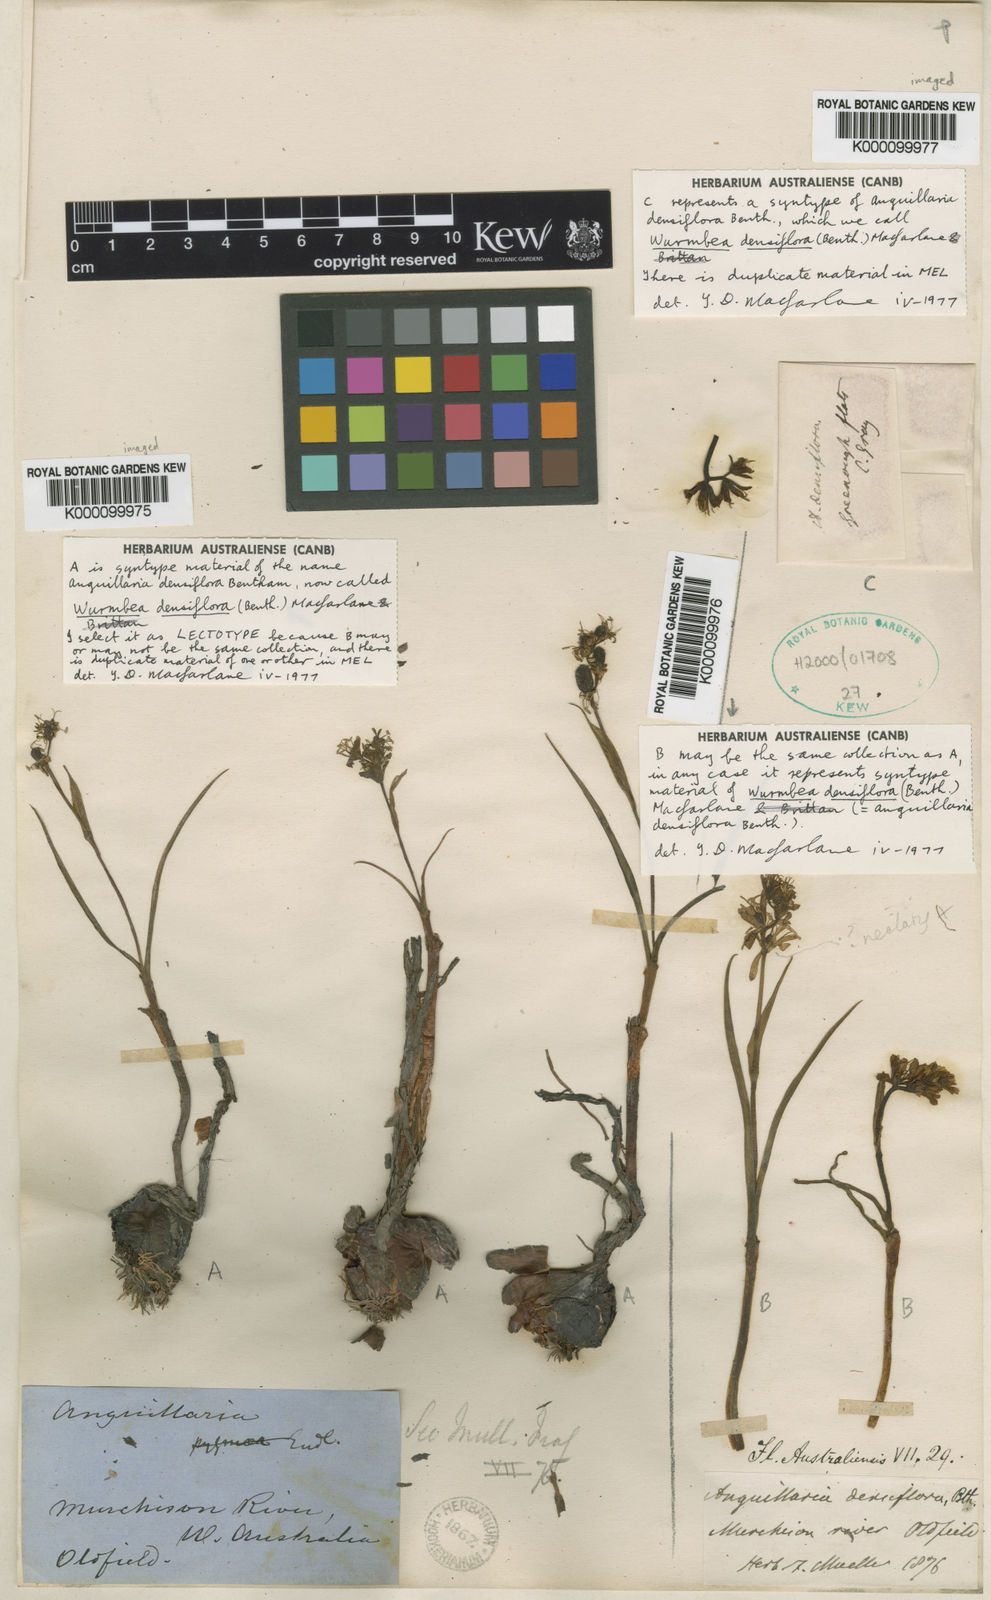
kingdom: Plantae
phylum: Tracheophyta
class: Liliopsida
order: Liliales
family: Colchicaceae
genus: Wurmbea
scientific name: Wurmbea densiflora
